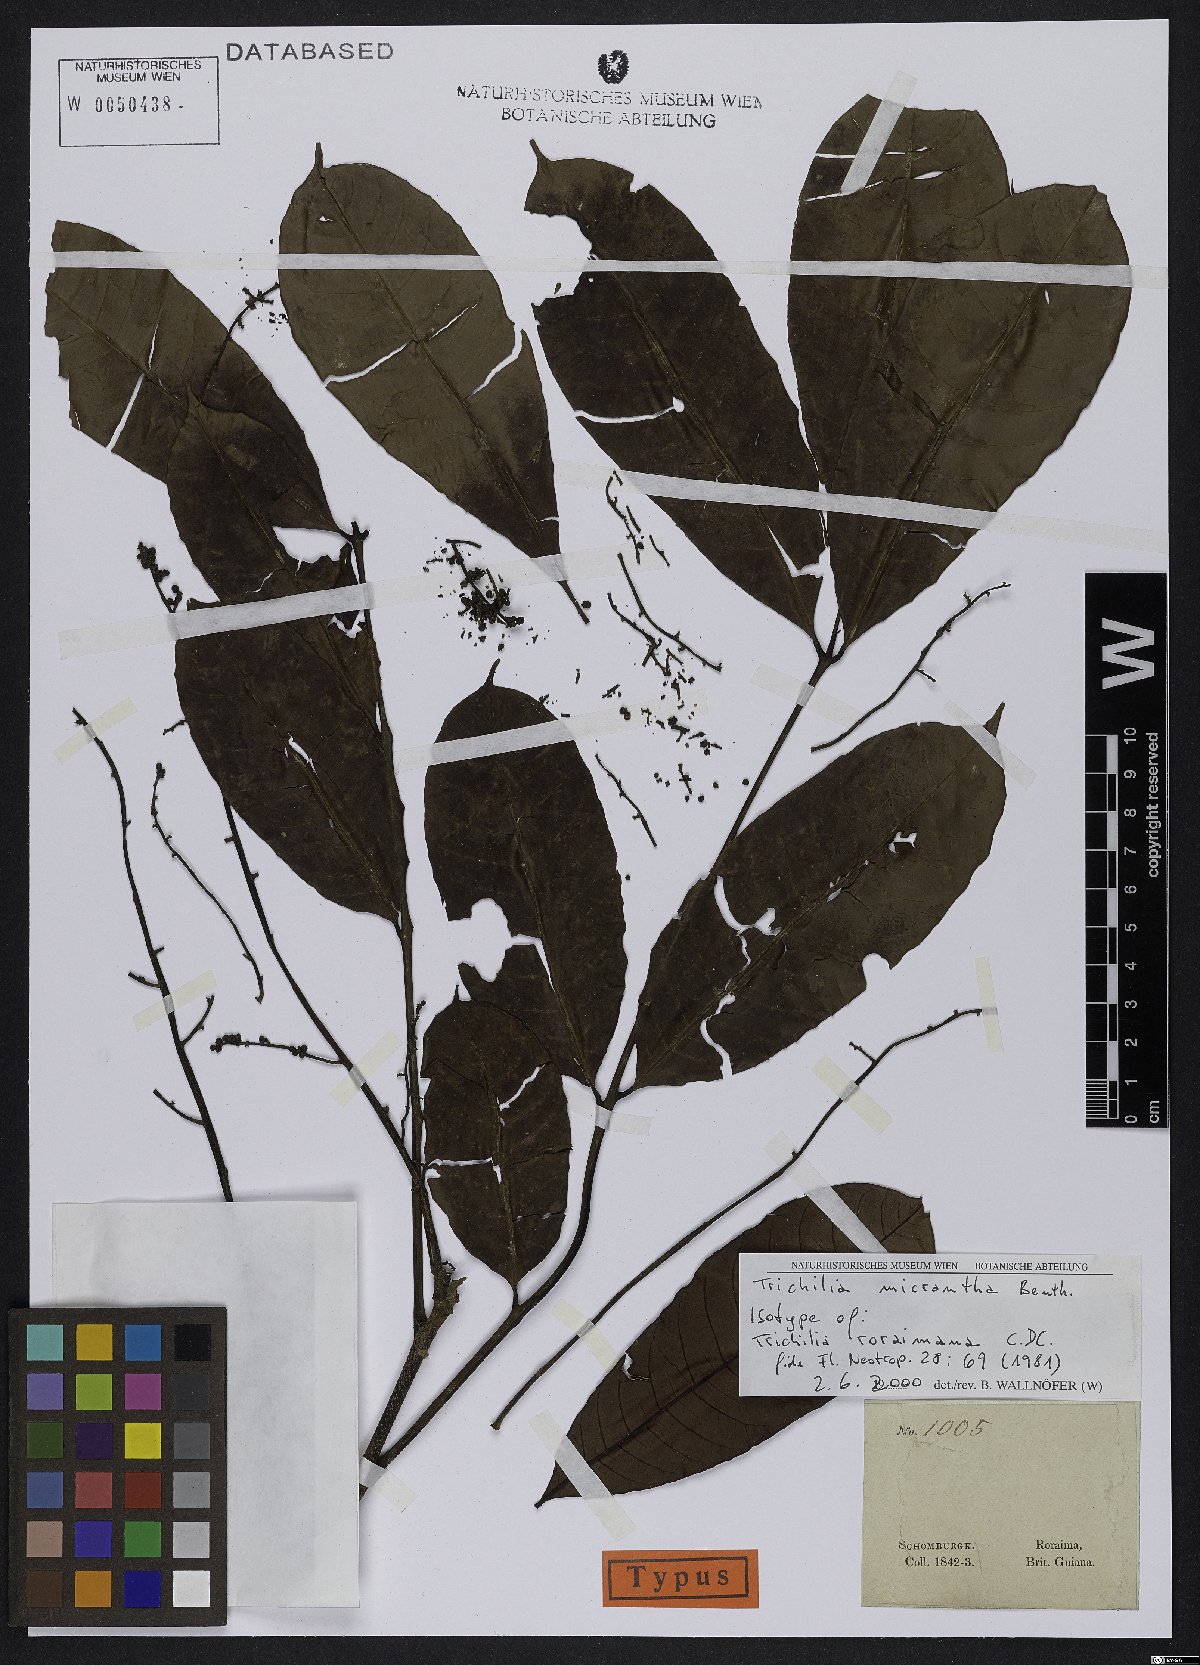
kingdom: Plantae
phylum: Tracheophyta
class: Magnoliopsida
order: Sapindales
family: Meliaceae
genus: Trichilia
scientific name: Trichilia micrantha
